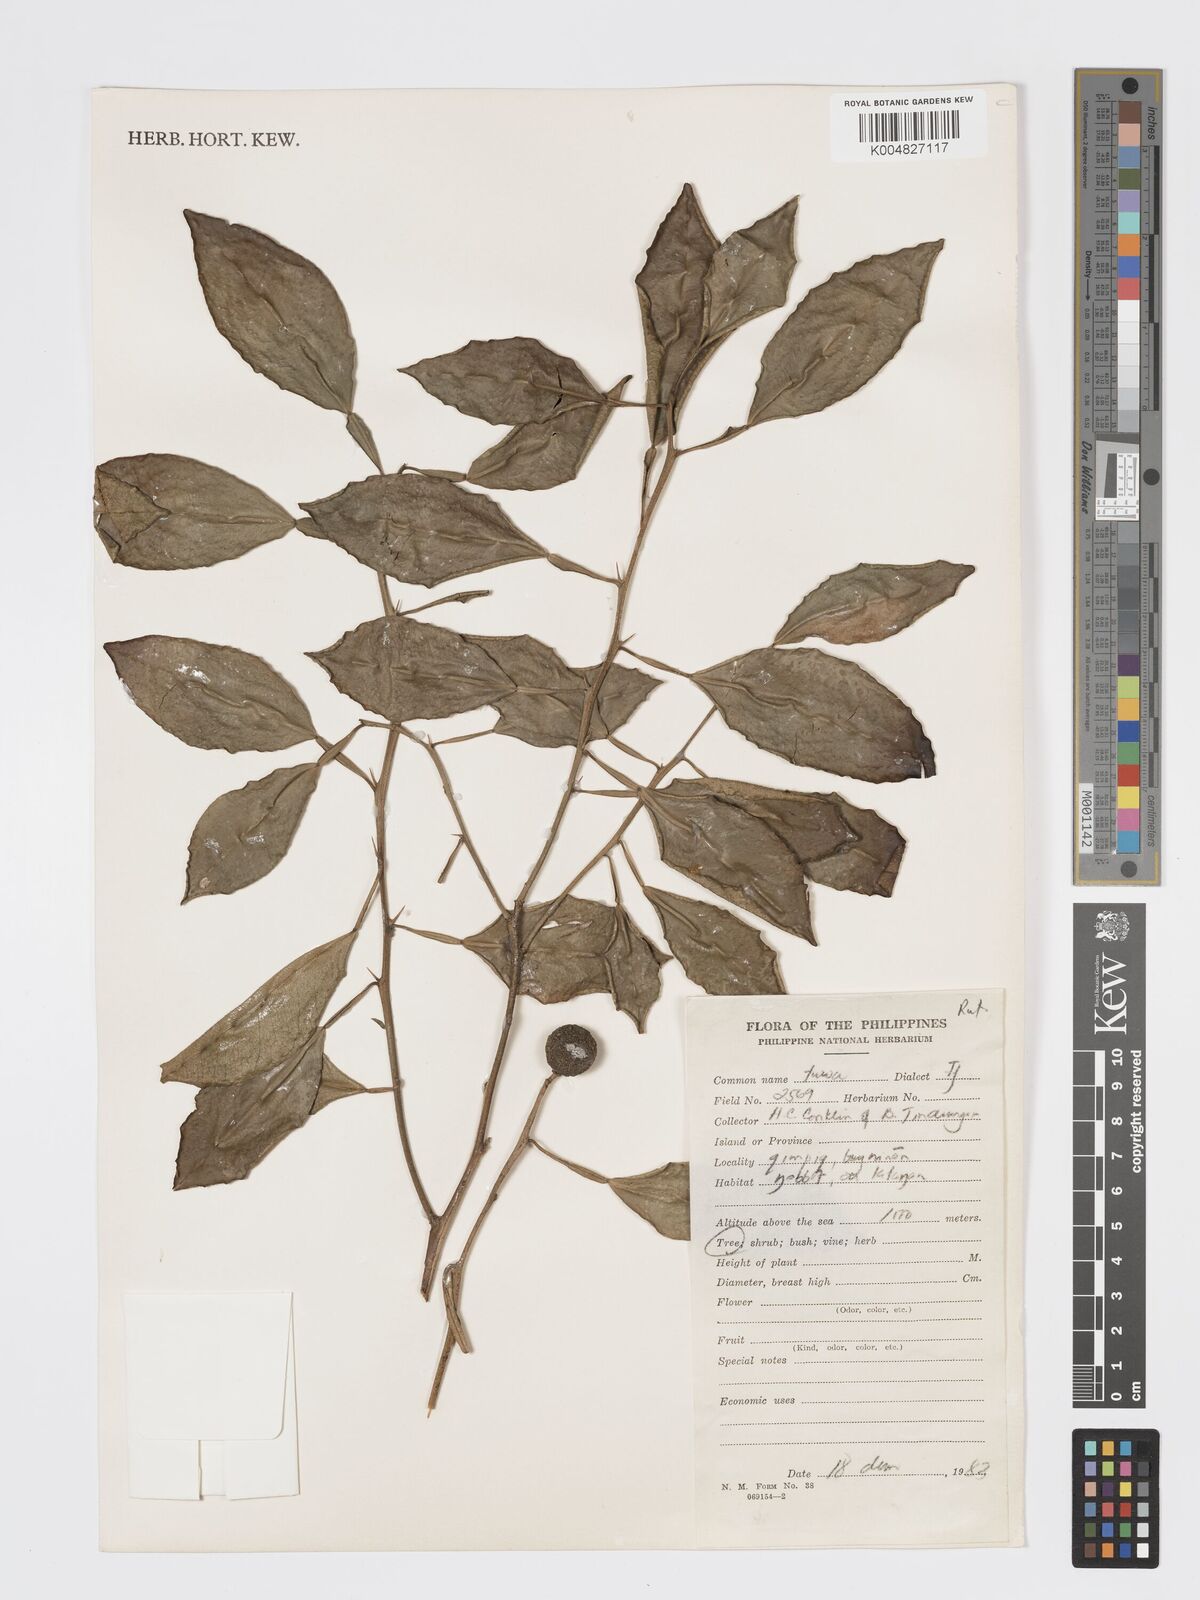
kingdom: Plantae
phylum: Tracheophyta
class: Magnoliopsida
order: Sapindales
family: Rutaceae
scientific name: Rutaceae
